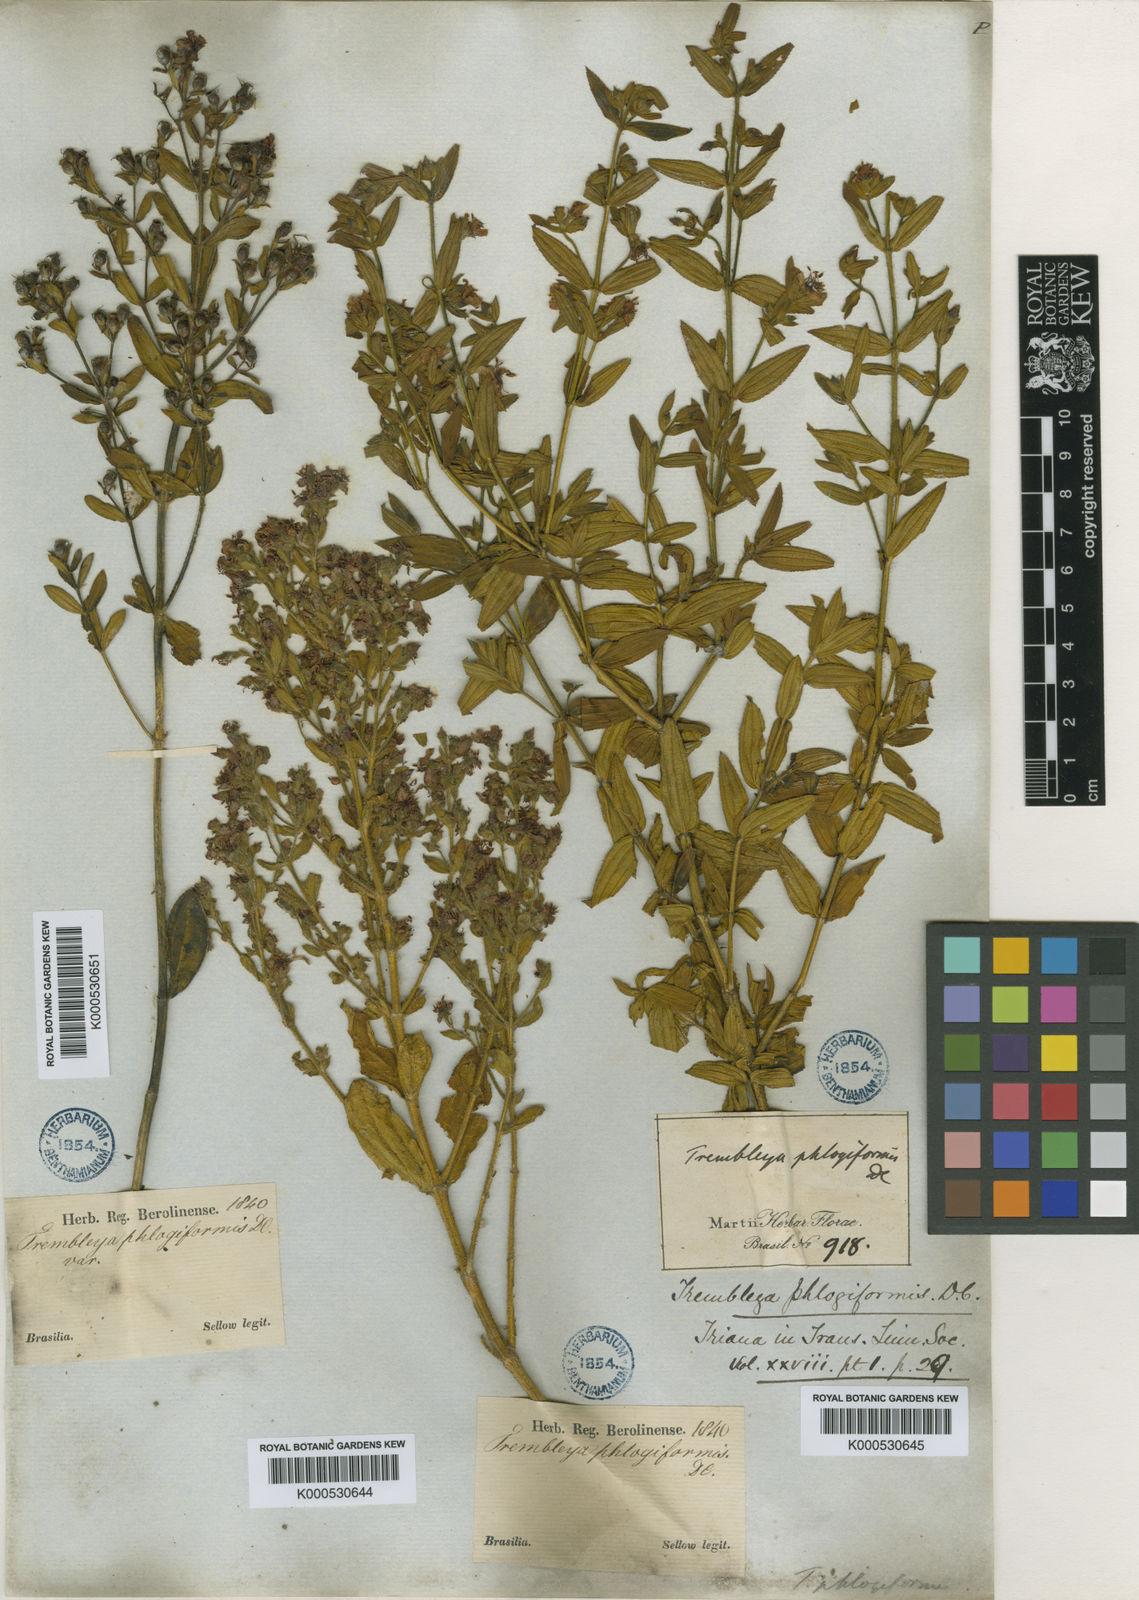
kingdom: Plantae
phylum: Tracheophyta
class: Magnoliopsida
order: Myrtales
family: Melastomataceae
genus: Microlicia
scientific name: Microlicia phlogiformis
